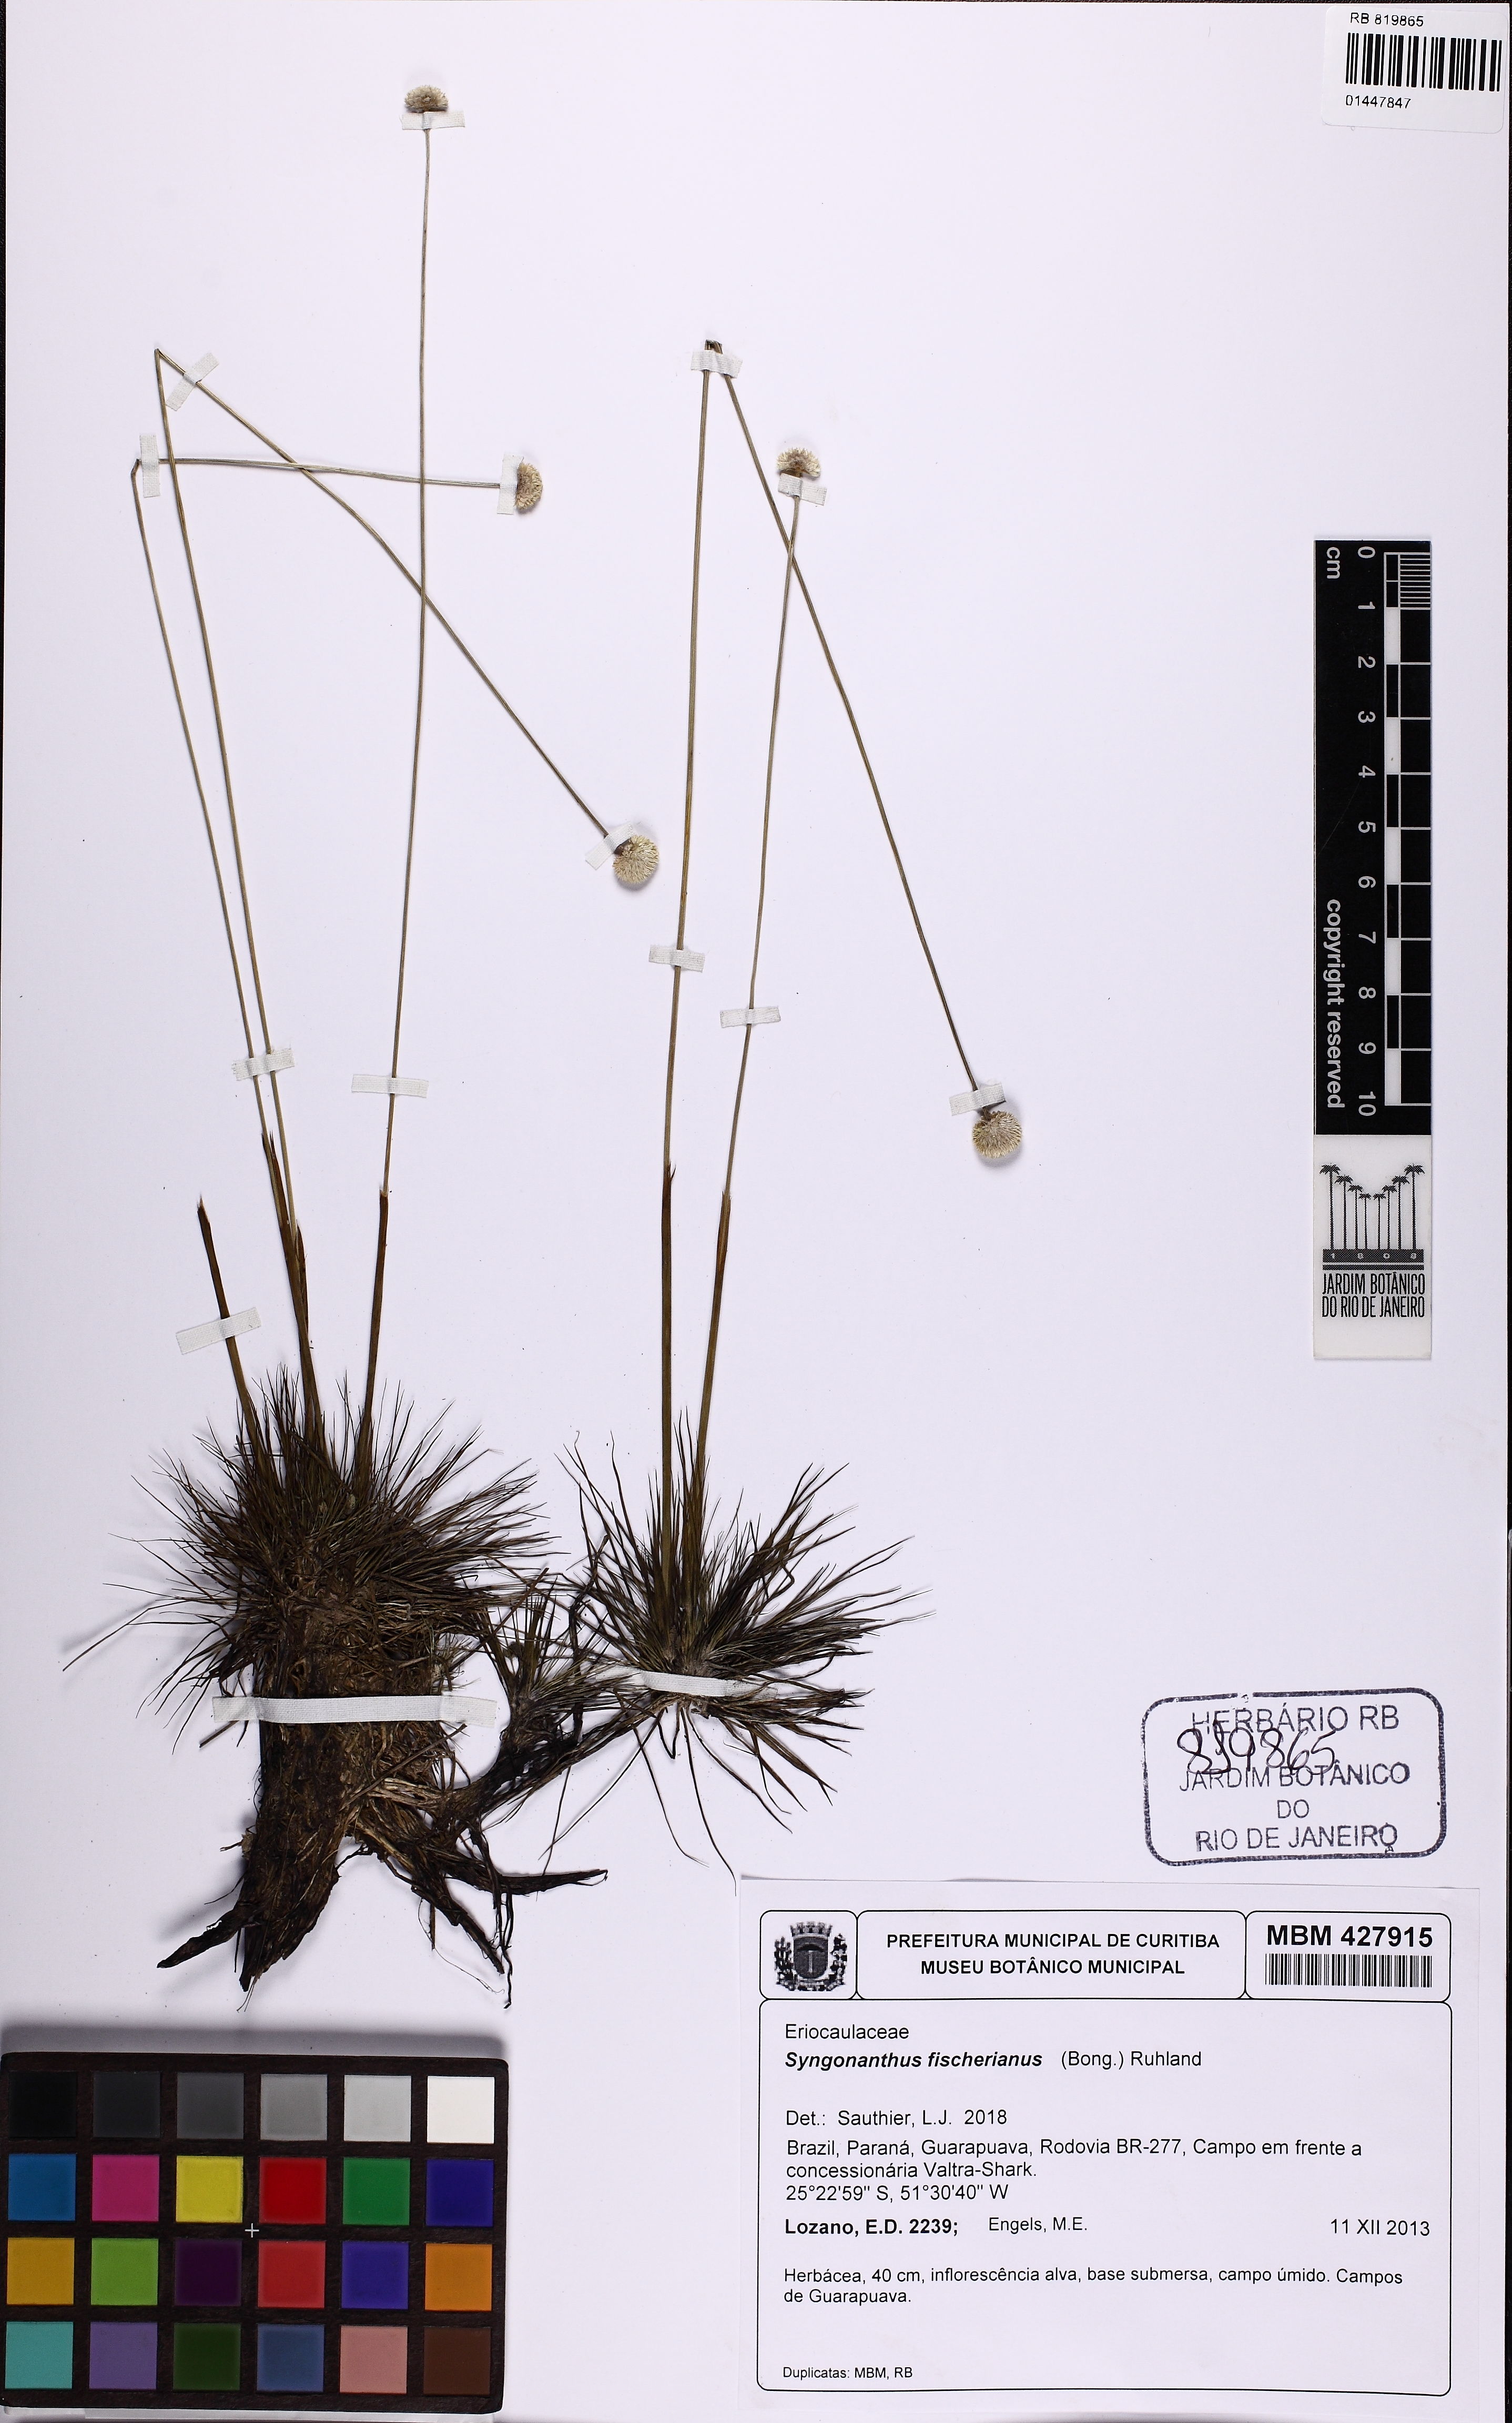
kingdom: Plantae
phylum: Tracheophyta
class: Liliopsida
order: Poales
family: Eriocaulaceae
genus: Syngonanthus
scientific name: Syngonanthus fischerianus
